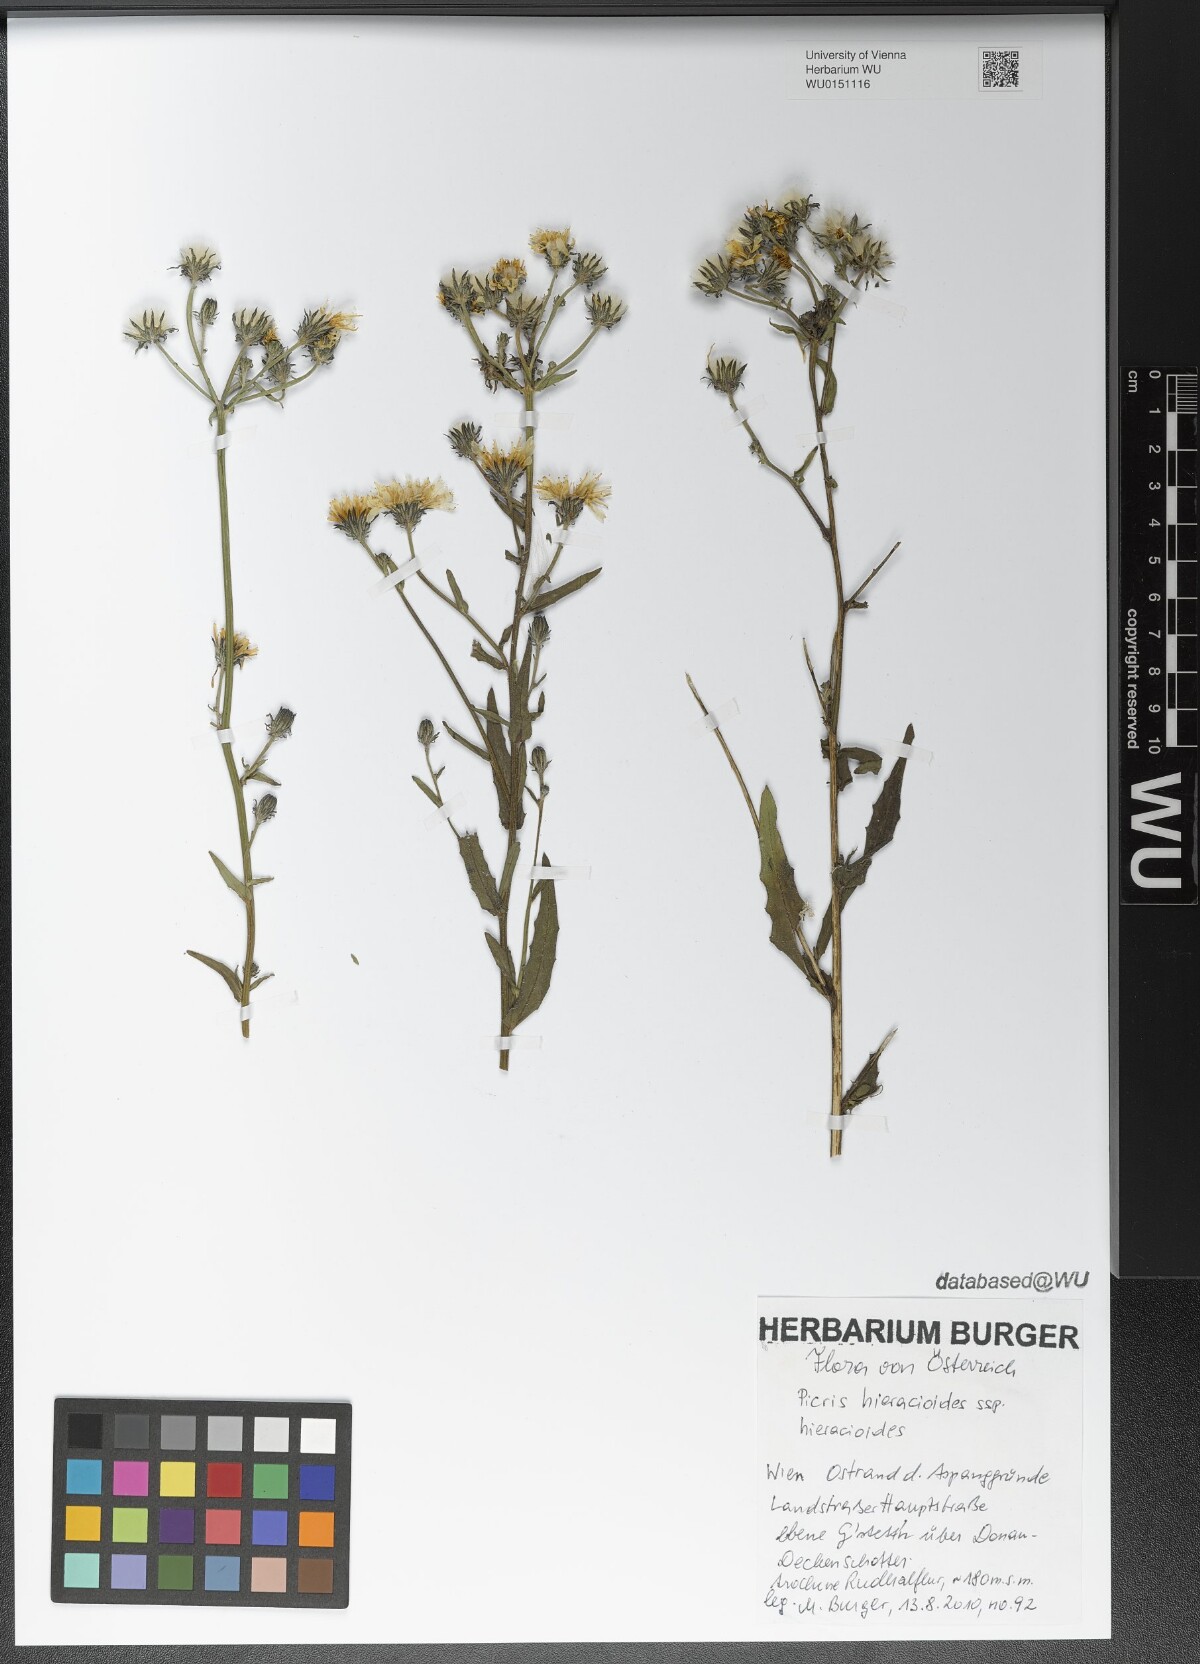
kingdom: Plantae
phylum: Tracheophyta
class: Magnoliopsida
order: Asterales
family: Asteraceae
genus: Picris
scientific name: Picris hieracioides
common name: Hawkweed oxtongue
